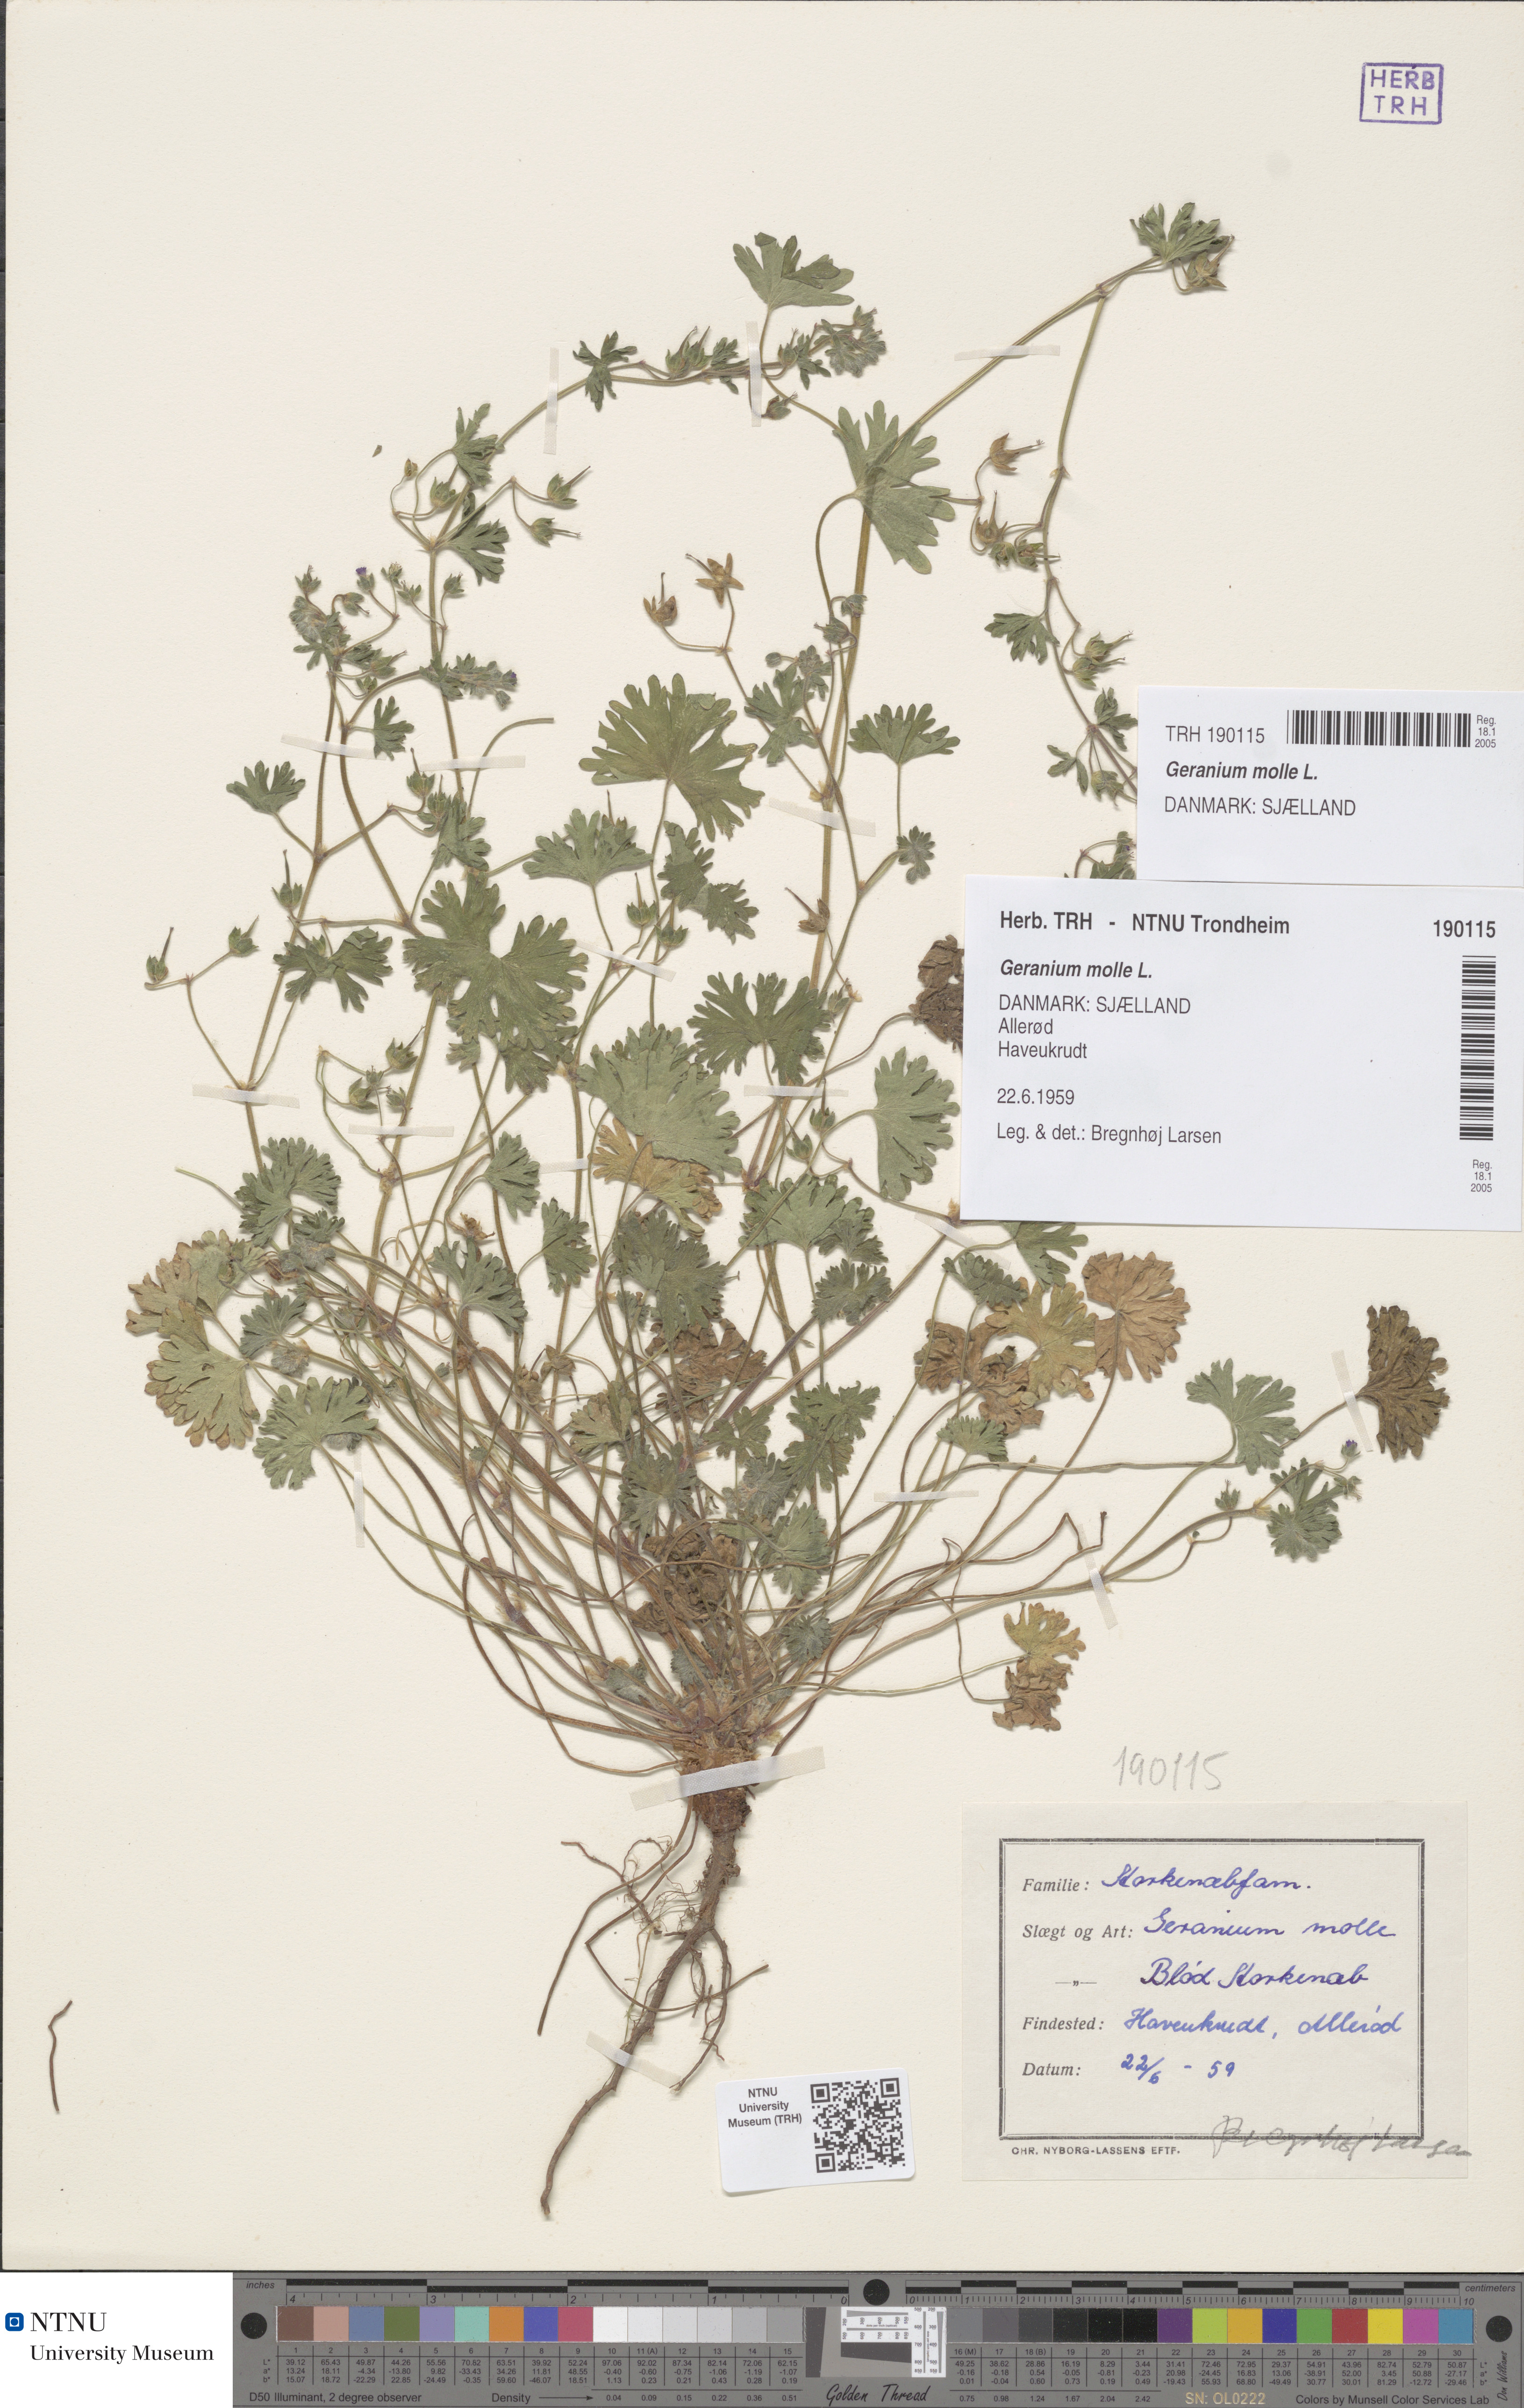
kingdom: Plantae
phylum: Tracheophyta
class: Magnoliopsida
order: Geraniales
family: Geraniaceae
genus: Geranium
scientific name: Geranium molle
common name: Dove's-foot crane's-bill
